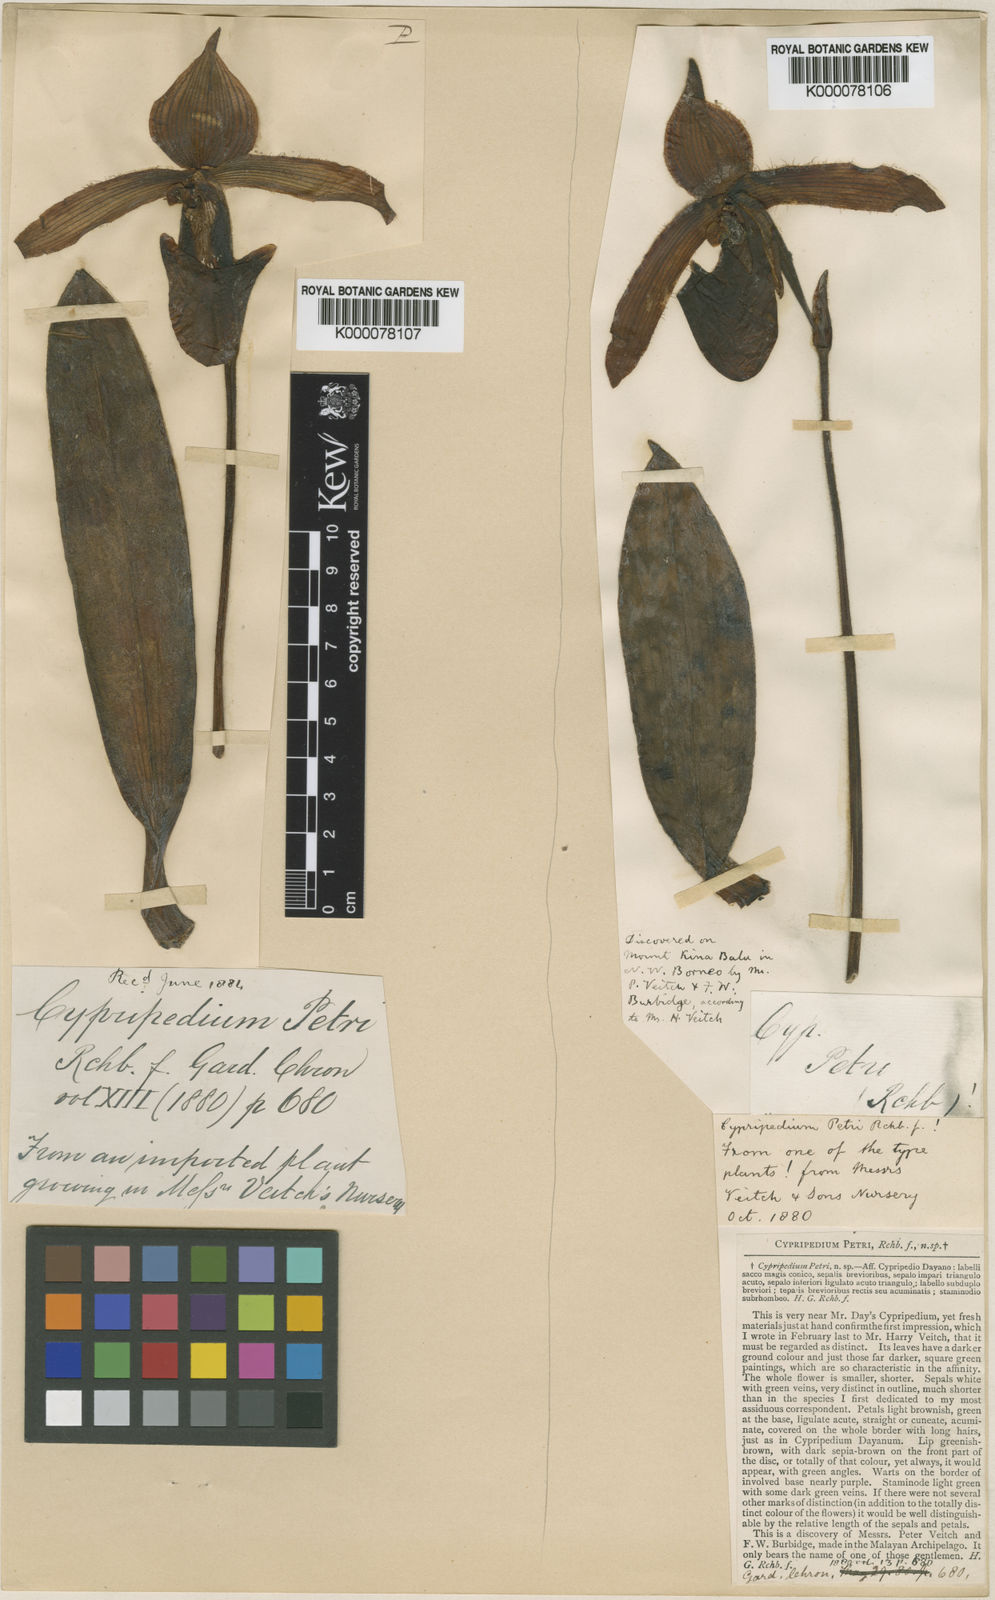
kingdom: Plantae
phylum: Tracheophyta
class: Liliopsida
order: Asparagales
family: Orchidaceae
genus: Paphiopedilum
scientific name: Paphiopedilum dayanum
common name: Day's paphiopedilum
